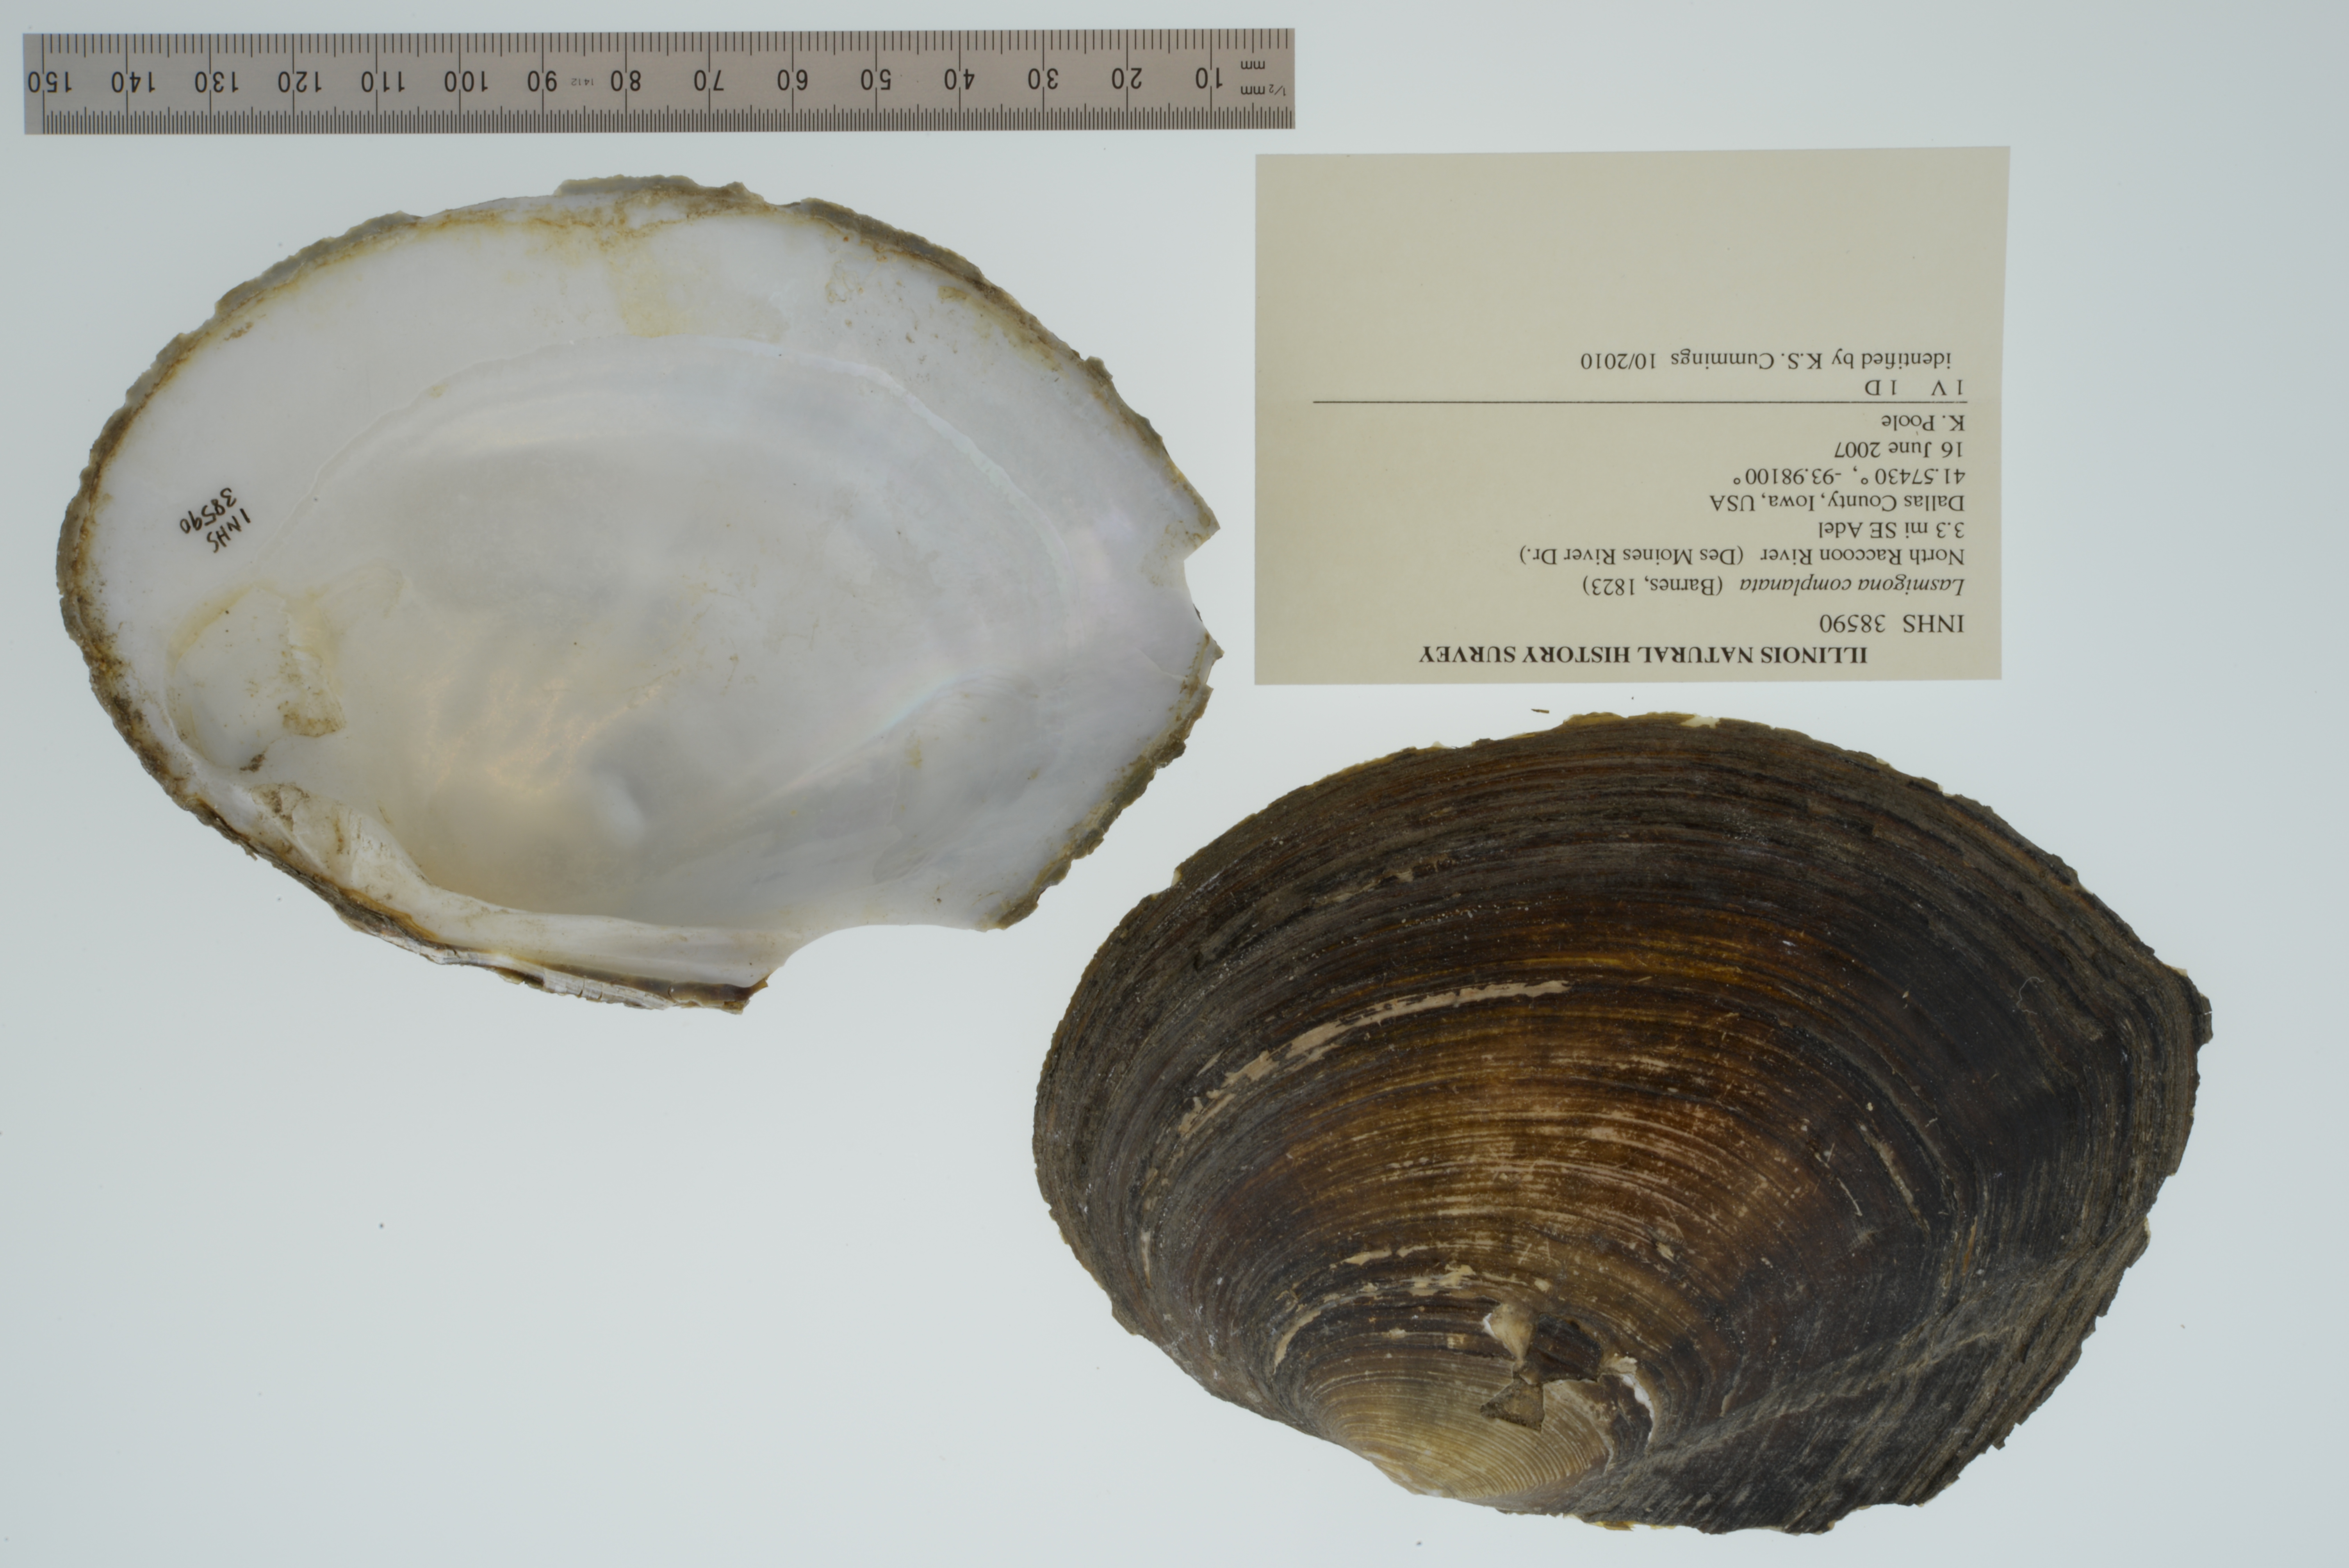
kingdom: Animalia
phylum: Mollusca
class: Bivalvia
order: Unionida
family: Unionidae
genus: Lasmigona
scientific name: Lasmigona complanata
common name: White heelsplitter
